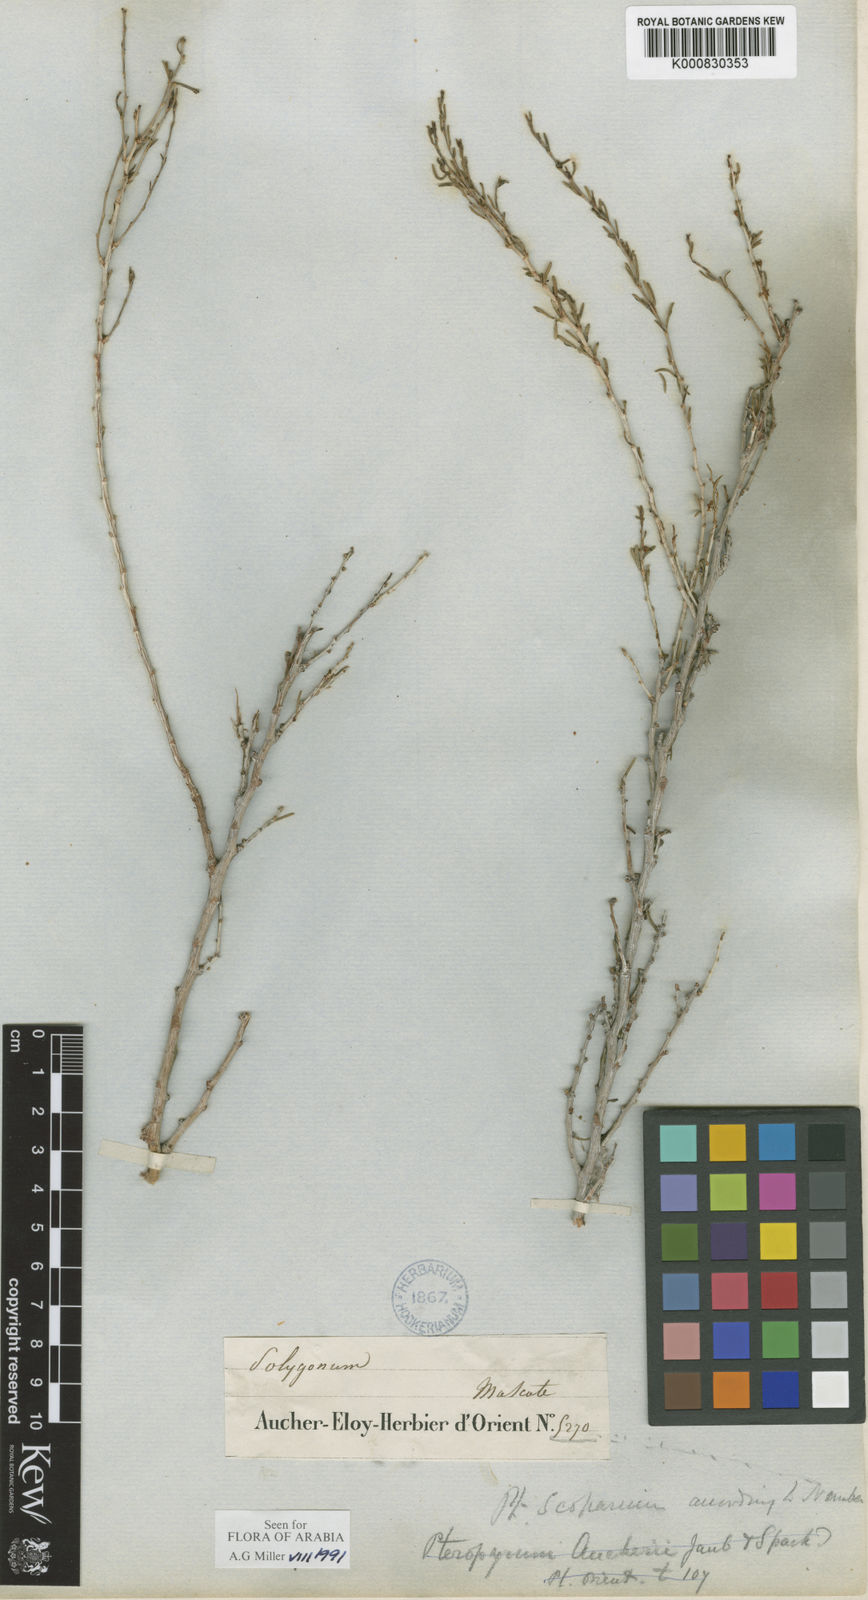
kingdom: Plantae
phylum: Tracheophyta
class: Magnoliopsida
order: Caryophyllales
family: Polygonaceae
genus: Pteropyrum
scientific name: Pteropyrum scoparium
